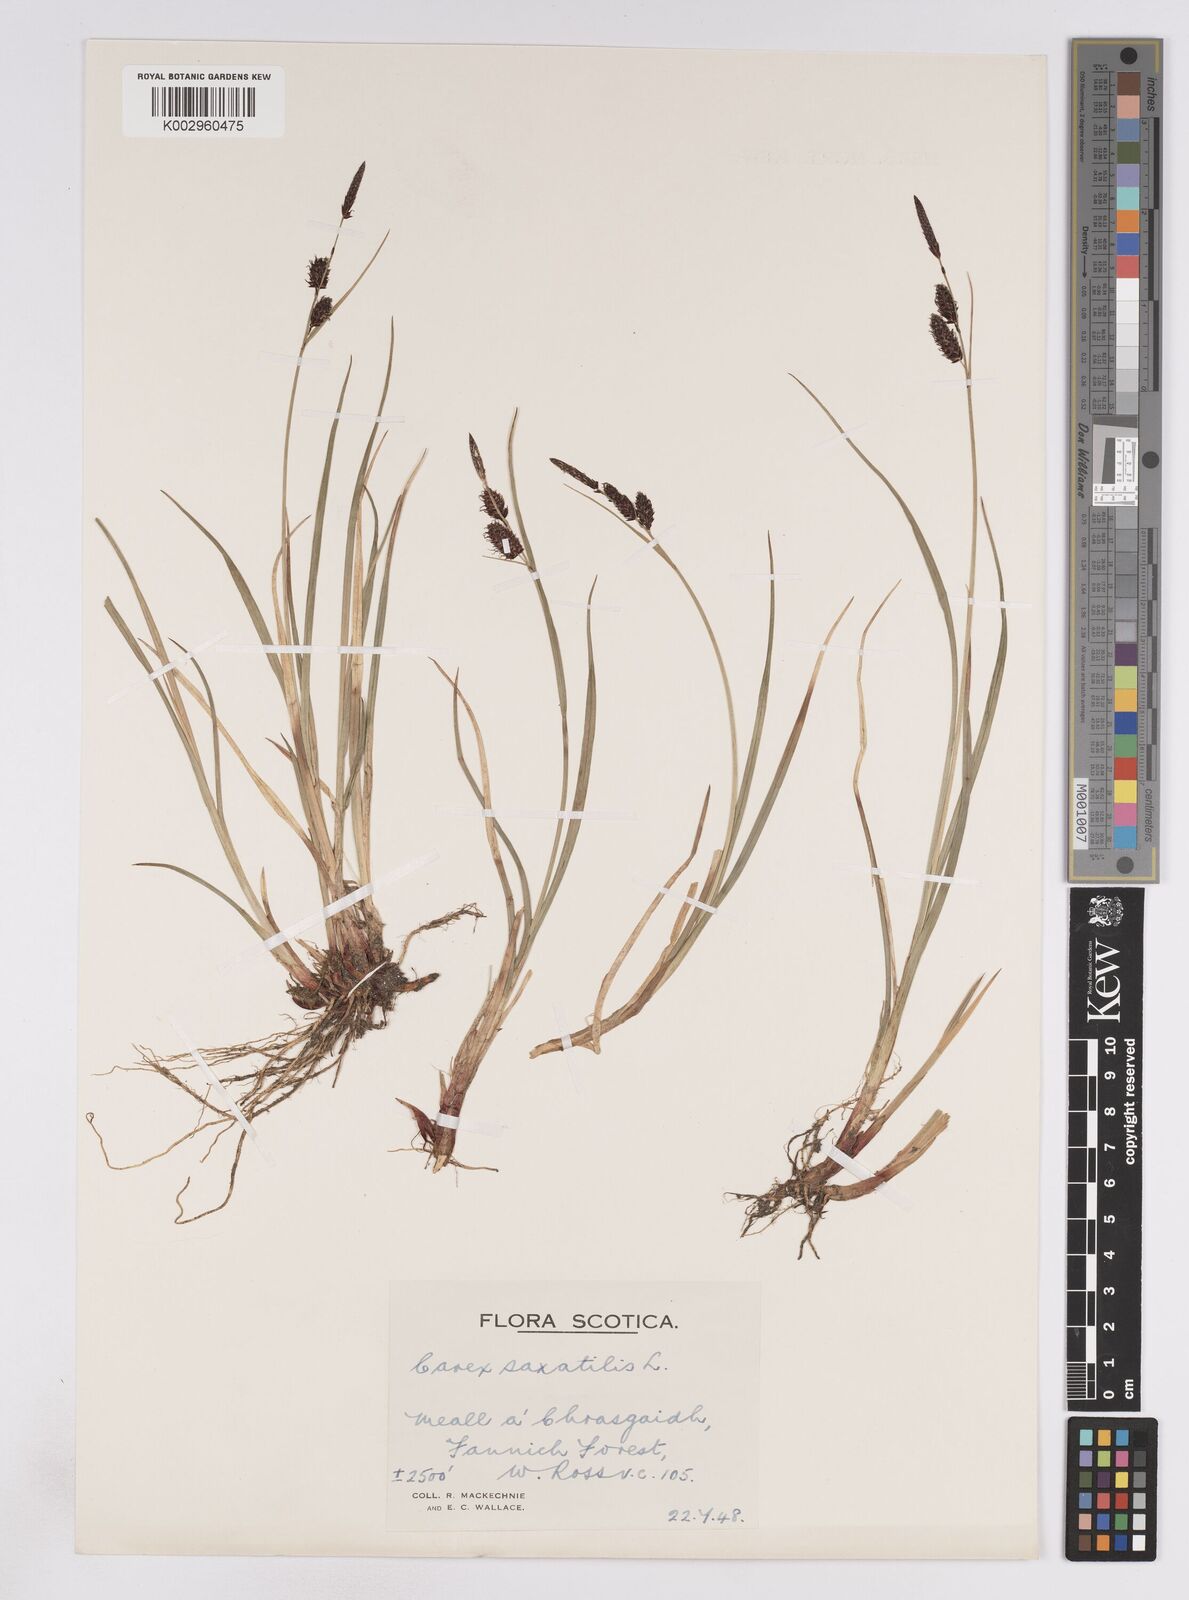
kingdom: Plantae
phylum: Tracheophyta
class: Liliopsida
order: Poales
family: Cyperaceae
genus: Carex
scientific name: Carex saxatilis
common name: Russet sedge
